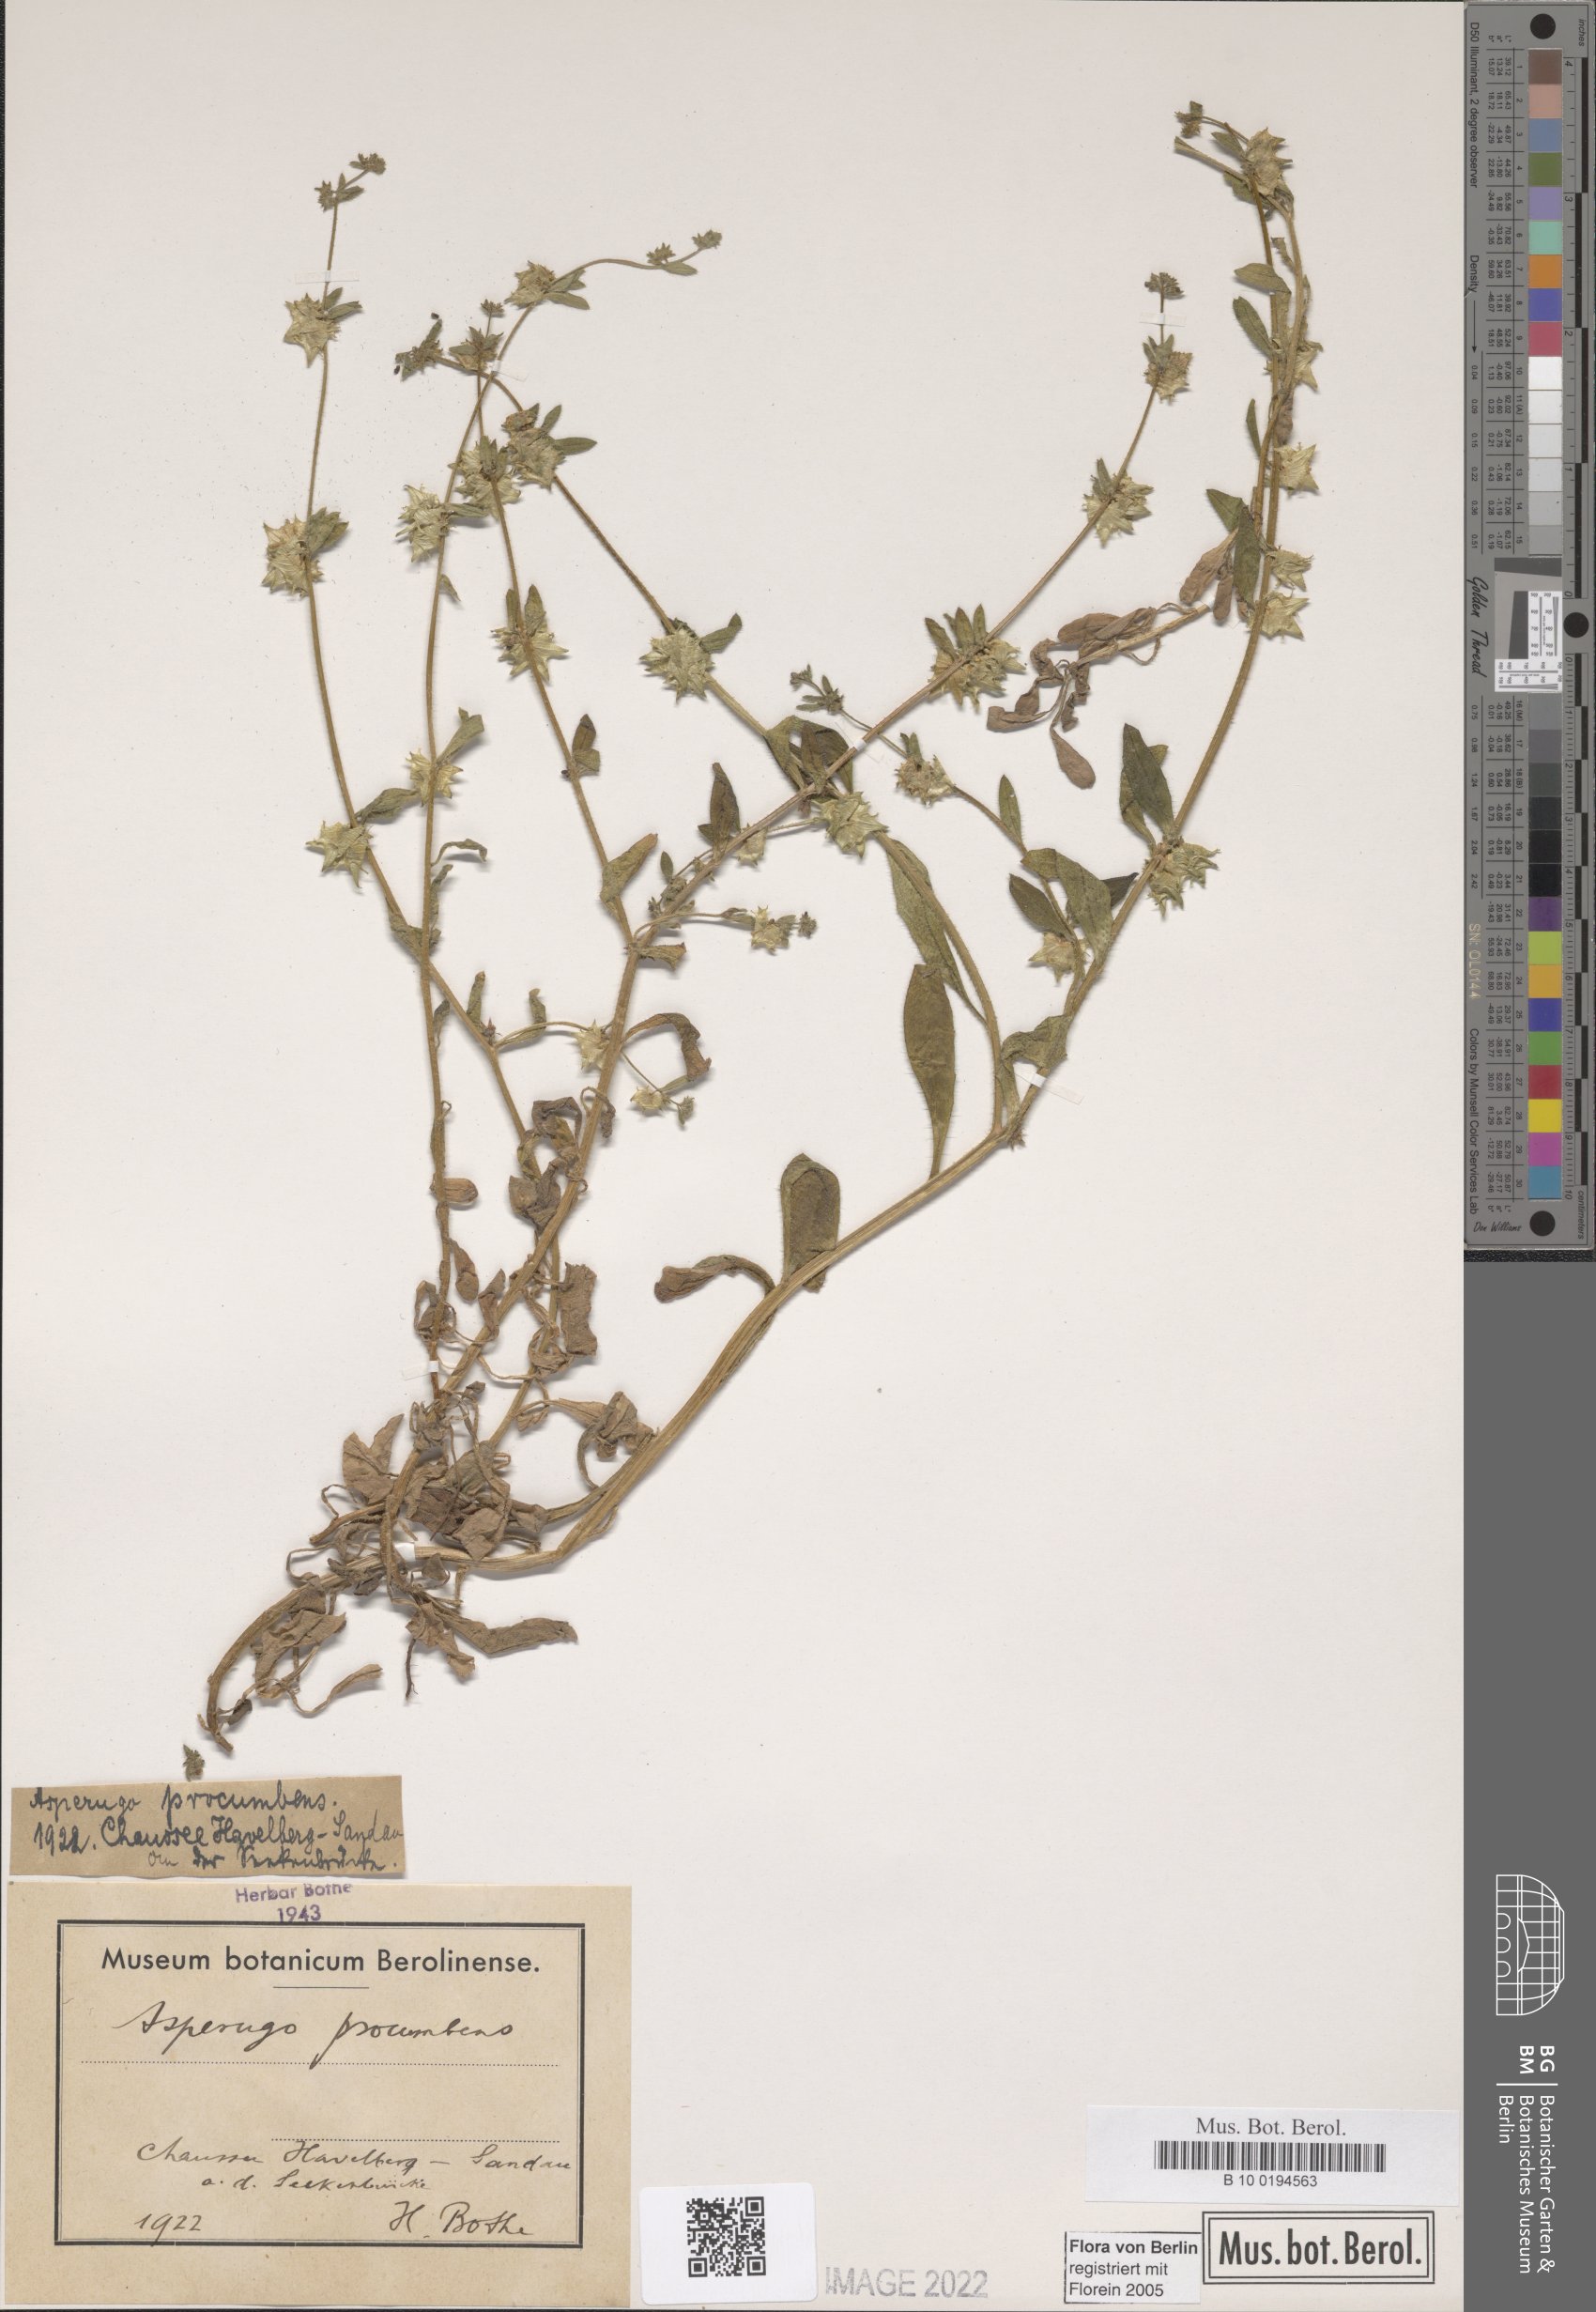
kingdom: Plantae
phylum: Tracheophyta
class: Magnoliopsida
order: Boraginales
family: Boraginaceae
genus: Asperugo
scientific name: Asperugo procumbens
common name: Madwort
